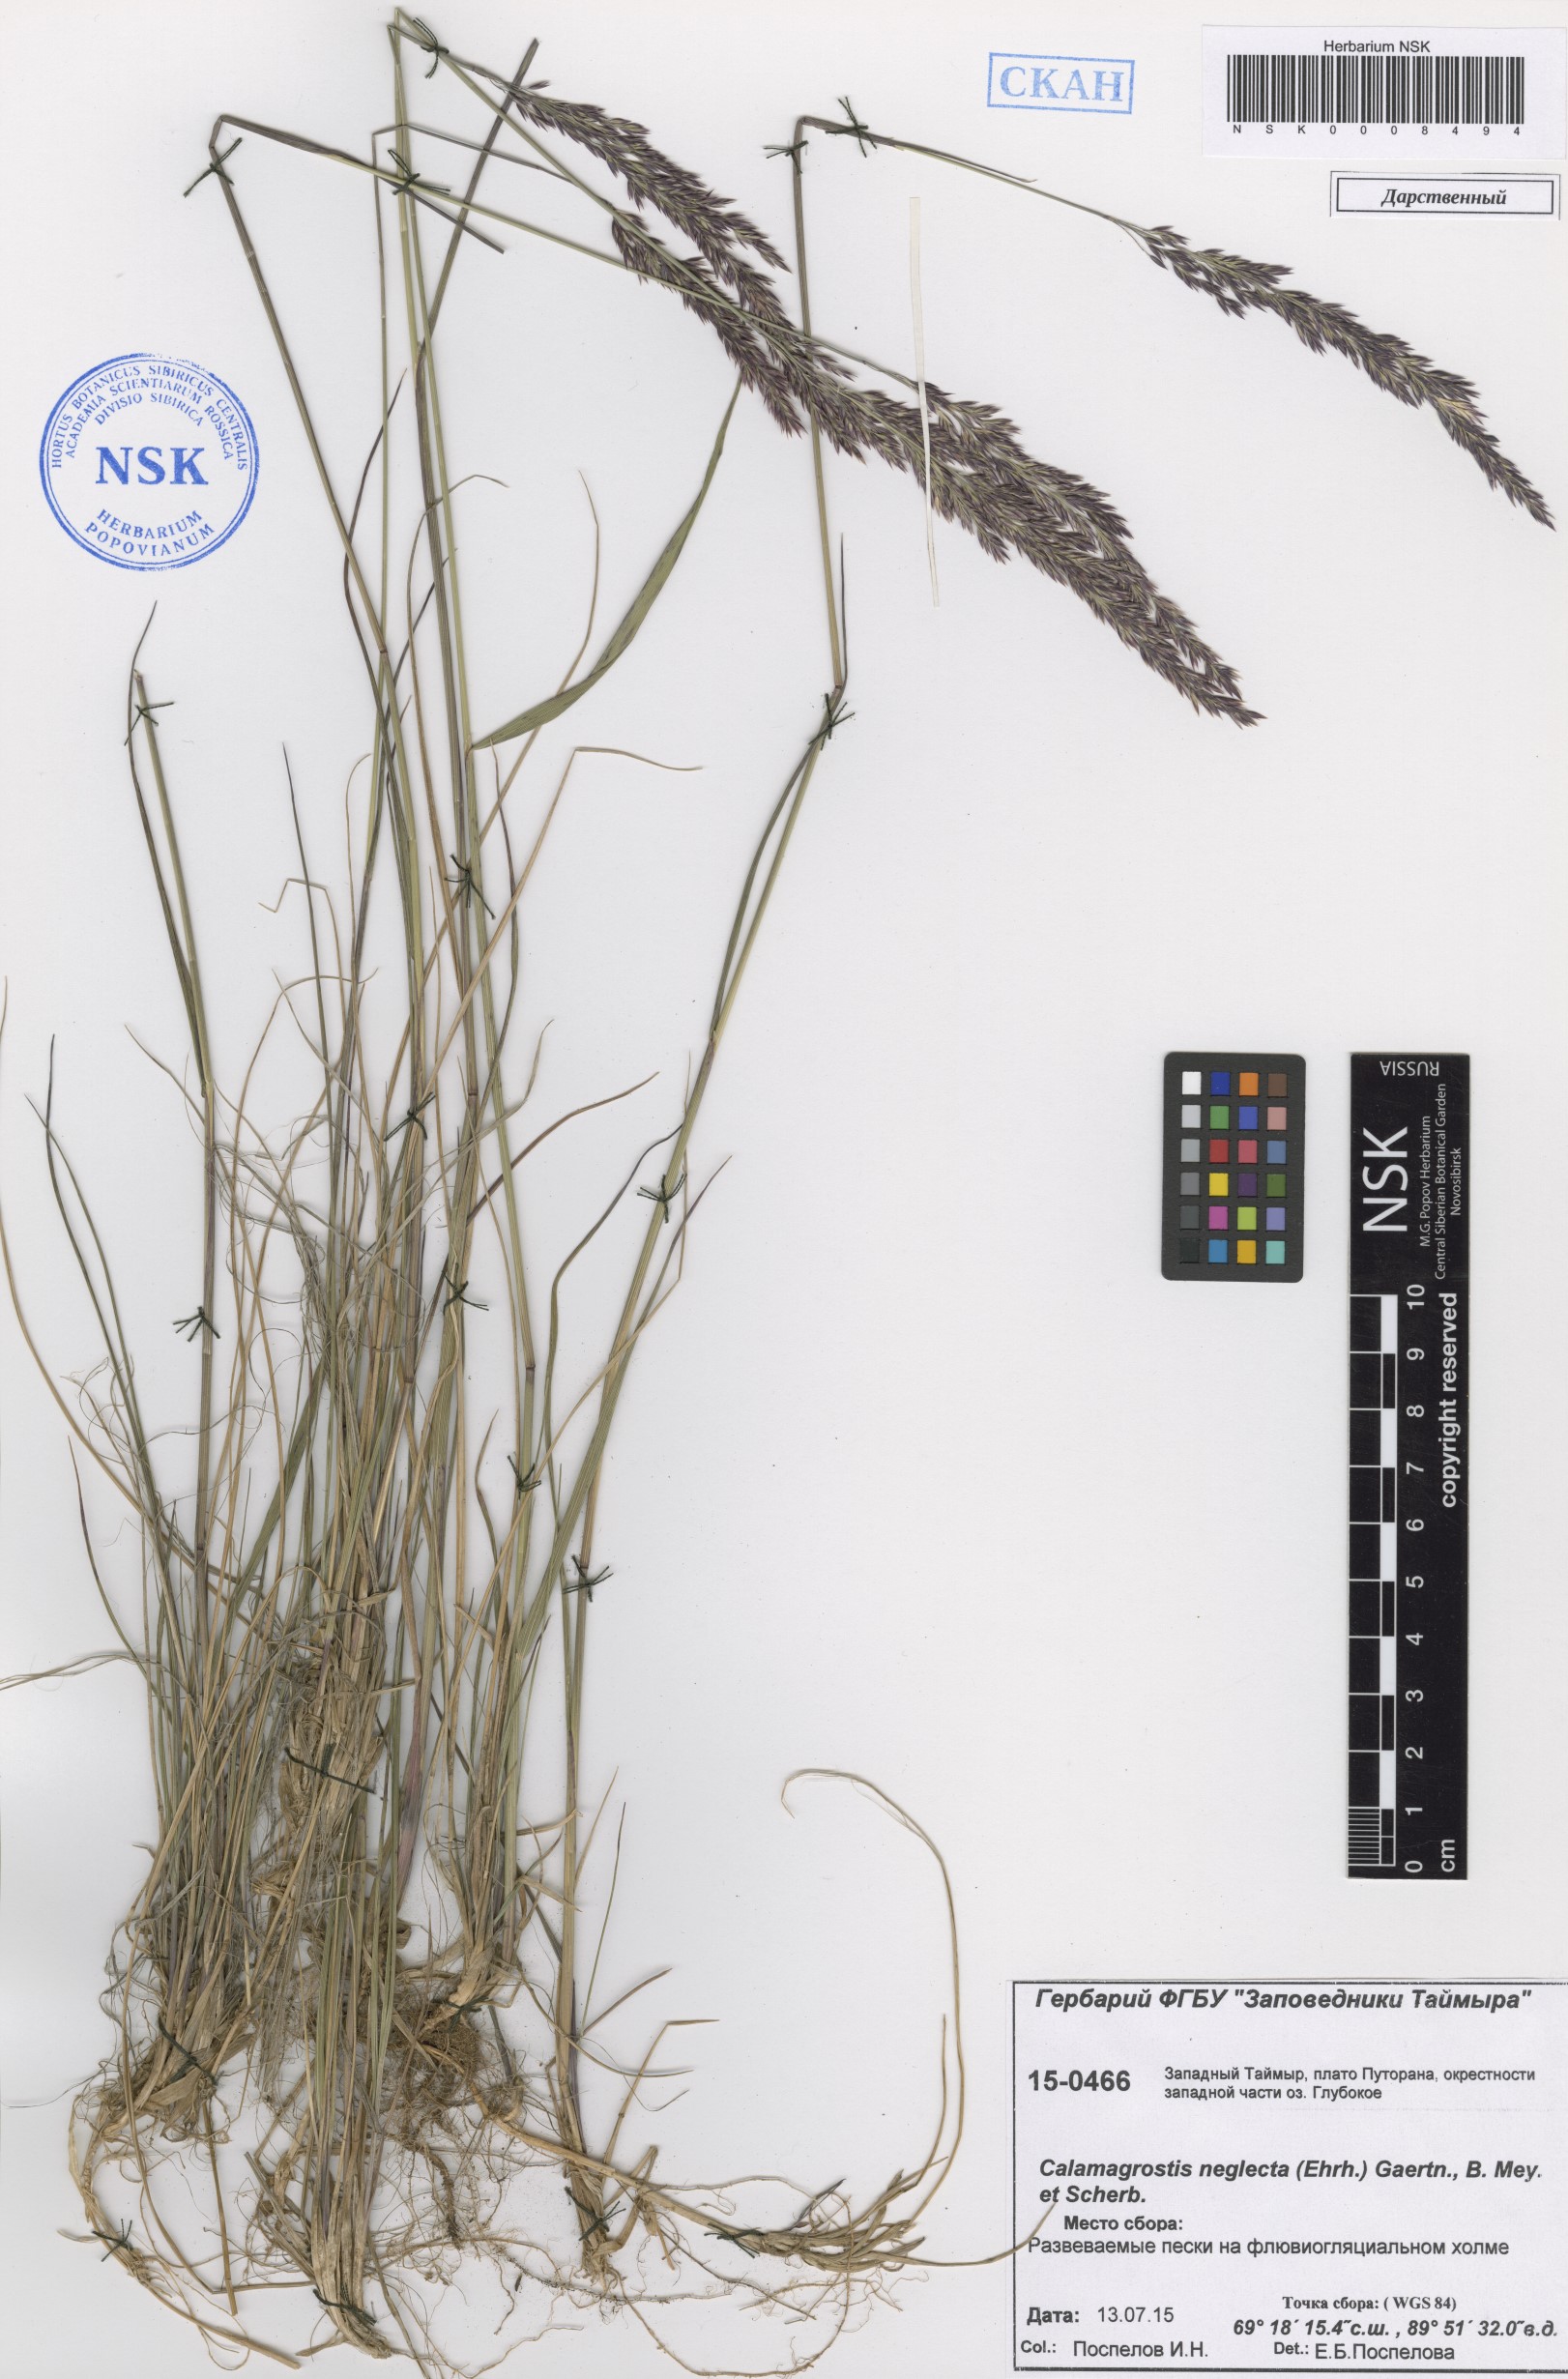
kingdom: Plantae
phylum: Tracheophyta
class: Liliopsida
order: Poales
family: Poaceae
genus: Achnatherum
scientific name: Achnatherum calamagrostis
